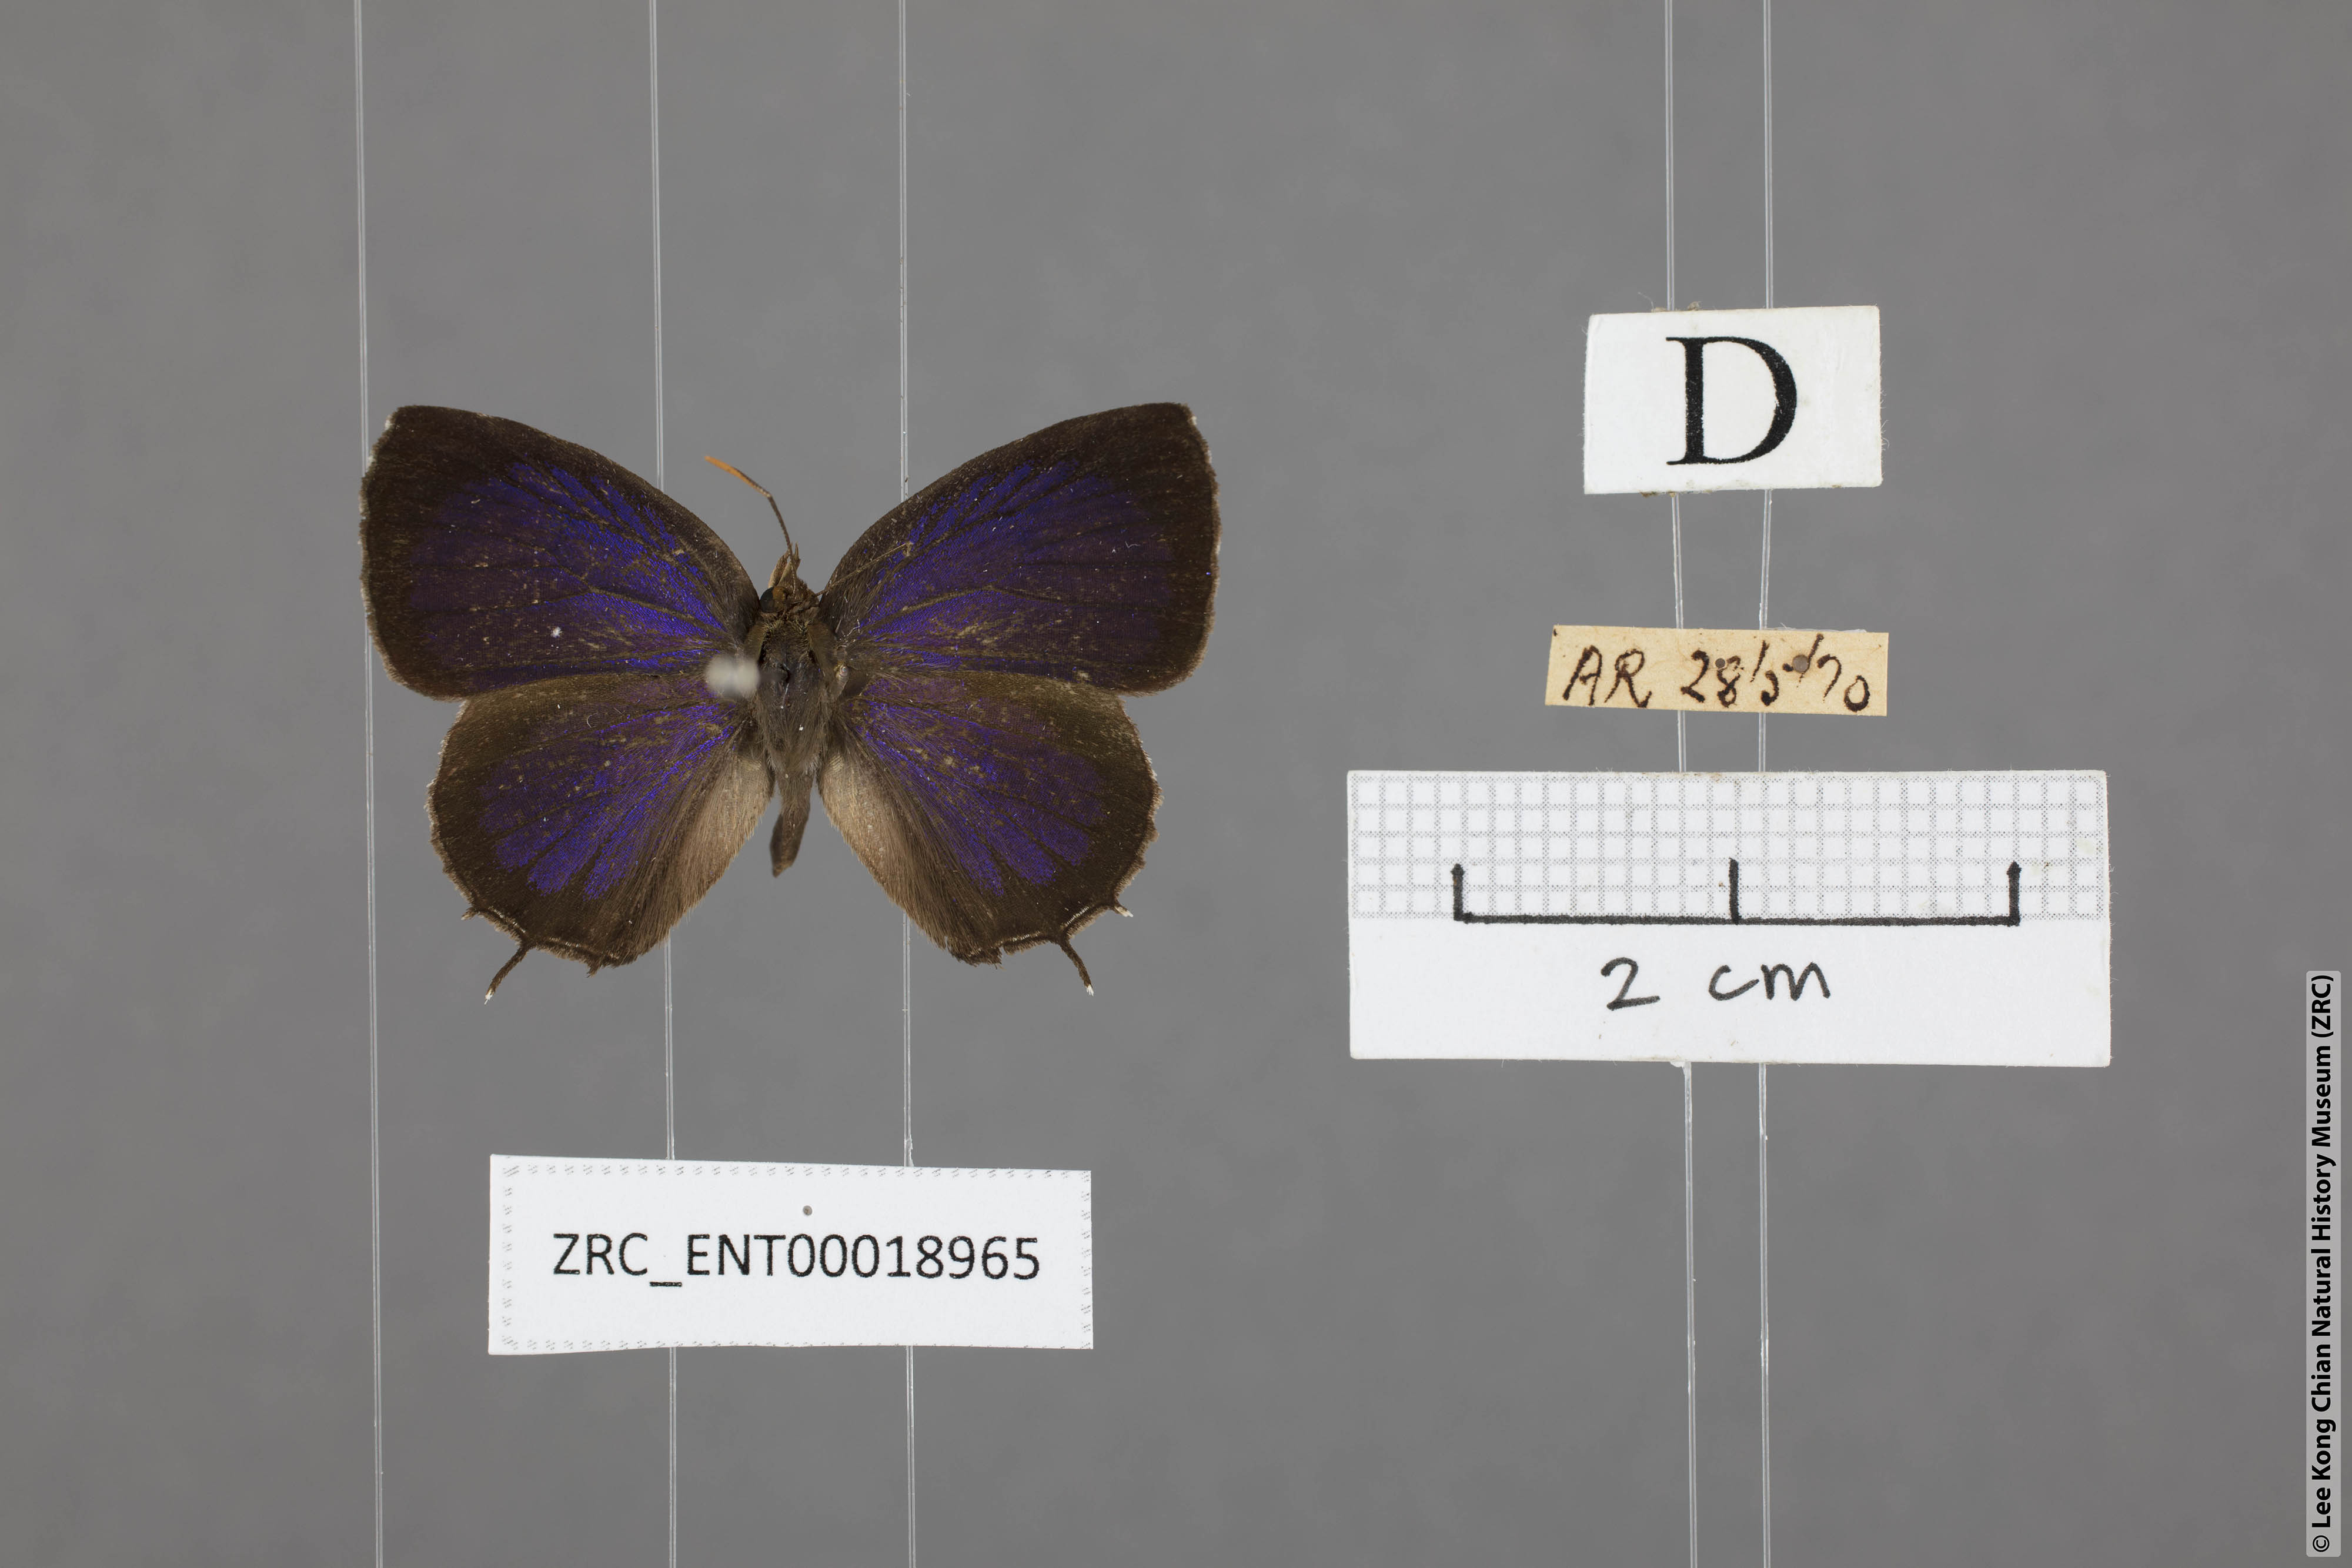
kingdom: Animalia
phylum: Arthropoda
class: Insecta
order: Lepidoptera
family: Lycaenidae
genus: Arhopala
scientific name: Arhopala abseus
